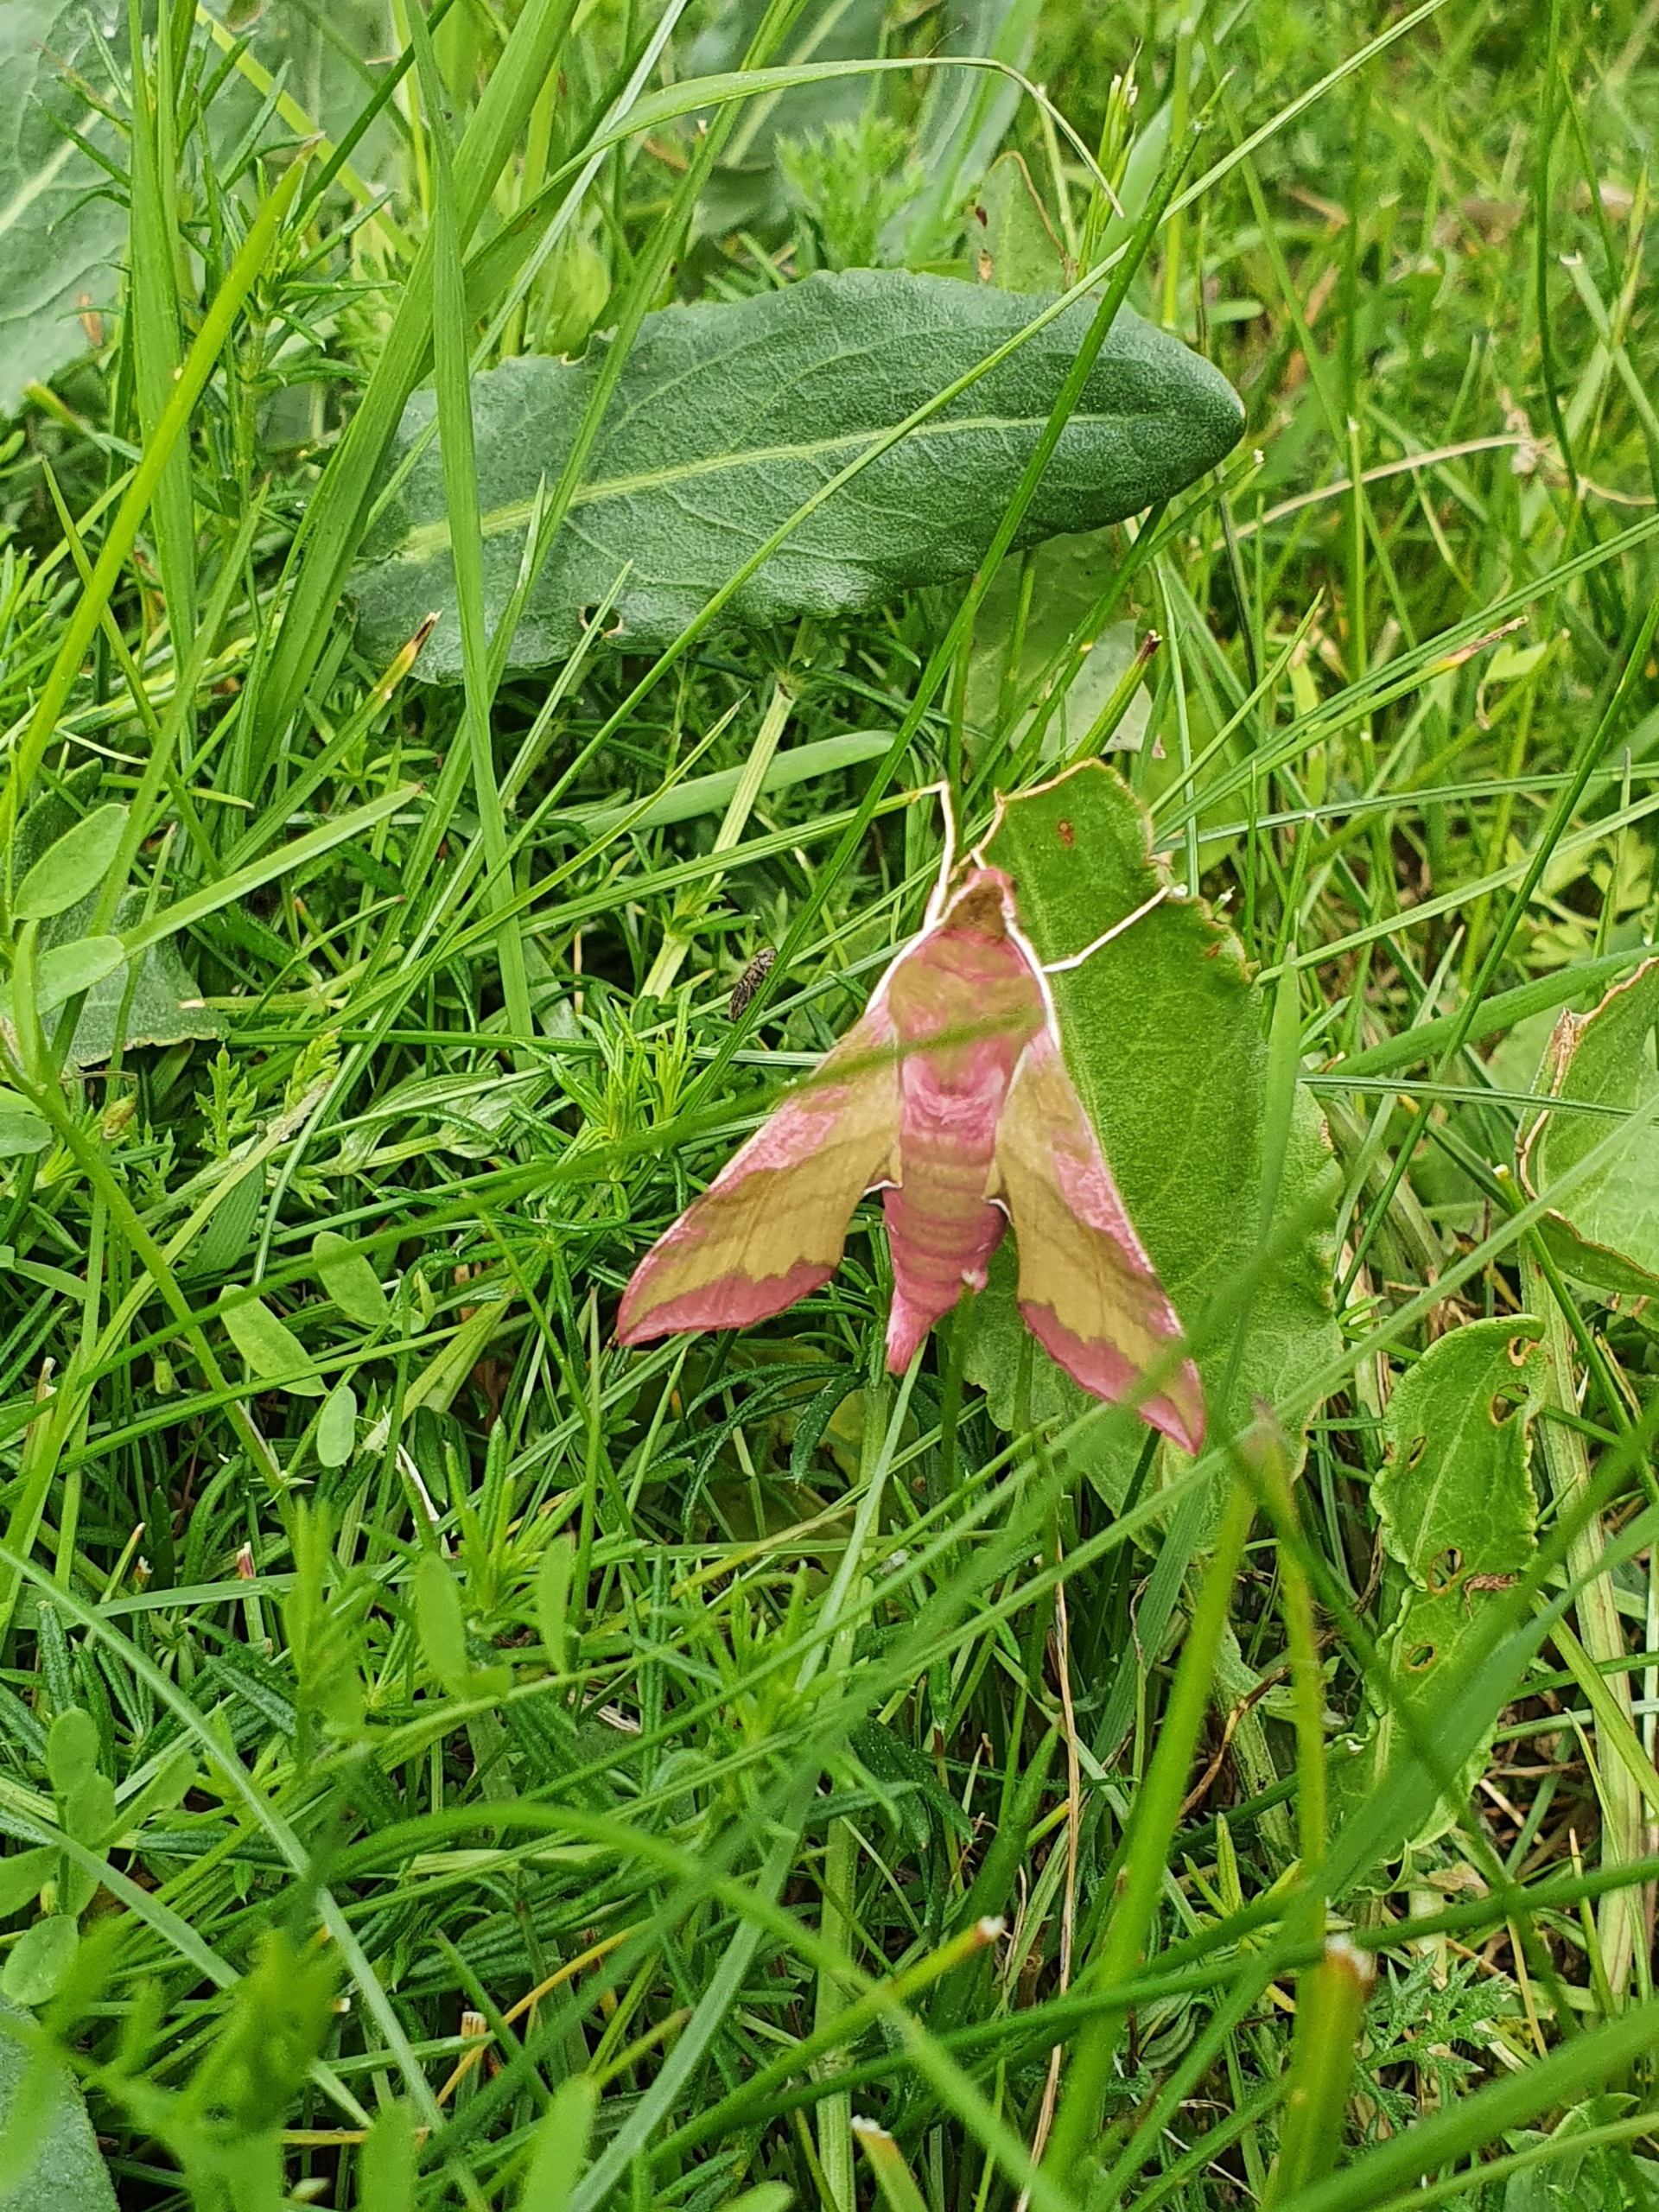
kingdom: Animalia
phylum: Arthropoda
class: Insecta
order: Lepidoptera
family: Sphingidae
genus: Deilephila
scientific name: Deilephila porcellus
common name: Lille vinsværmer
